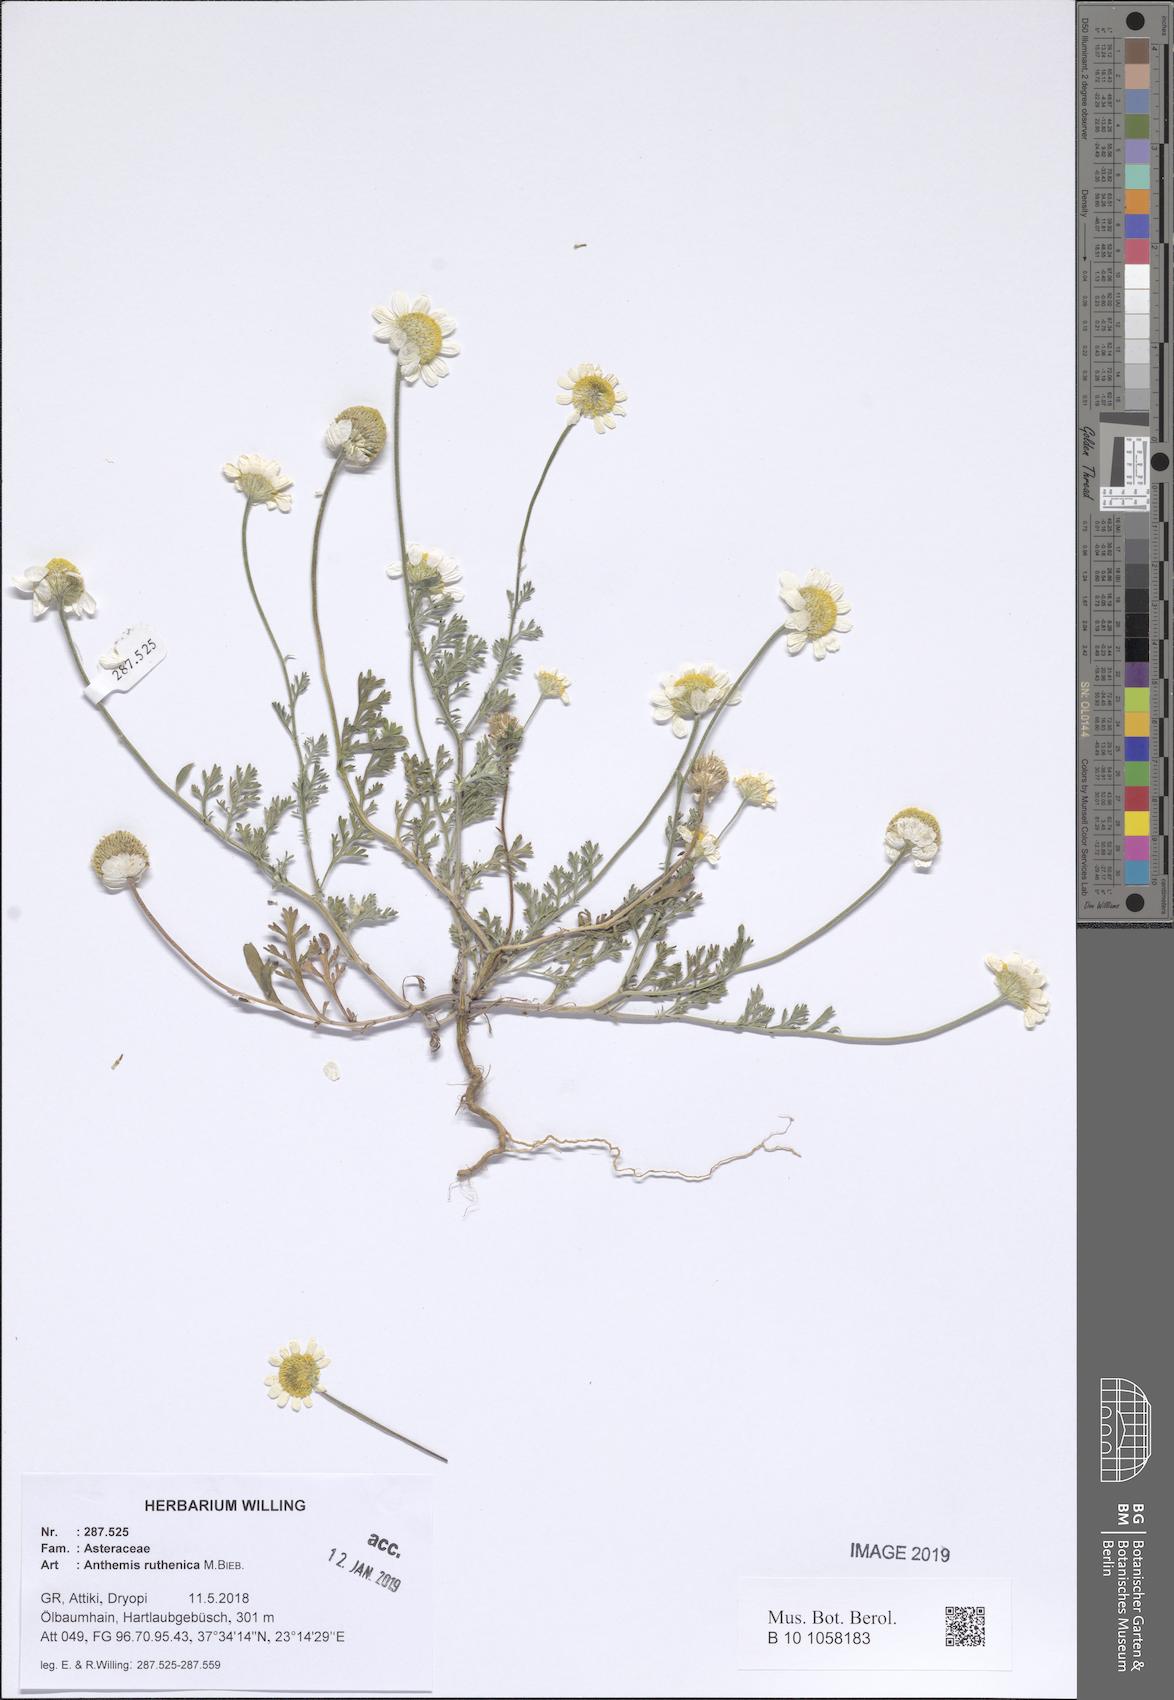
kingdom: Plantae
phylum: Tracheophyta
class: Magnoliopsida
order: Asterales
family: Asteraceae
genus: Anthemis
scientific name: Anthemis ruthenica
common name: Eastern chamomile
